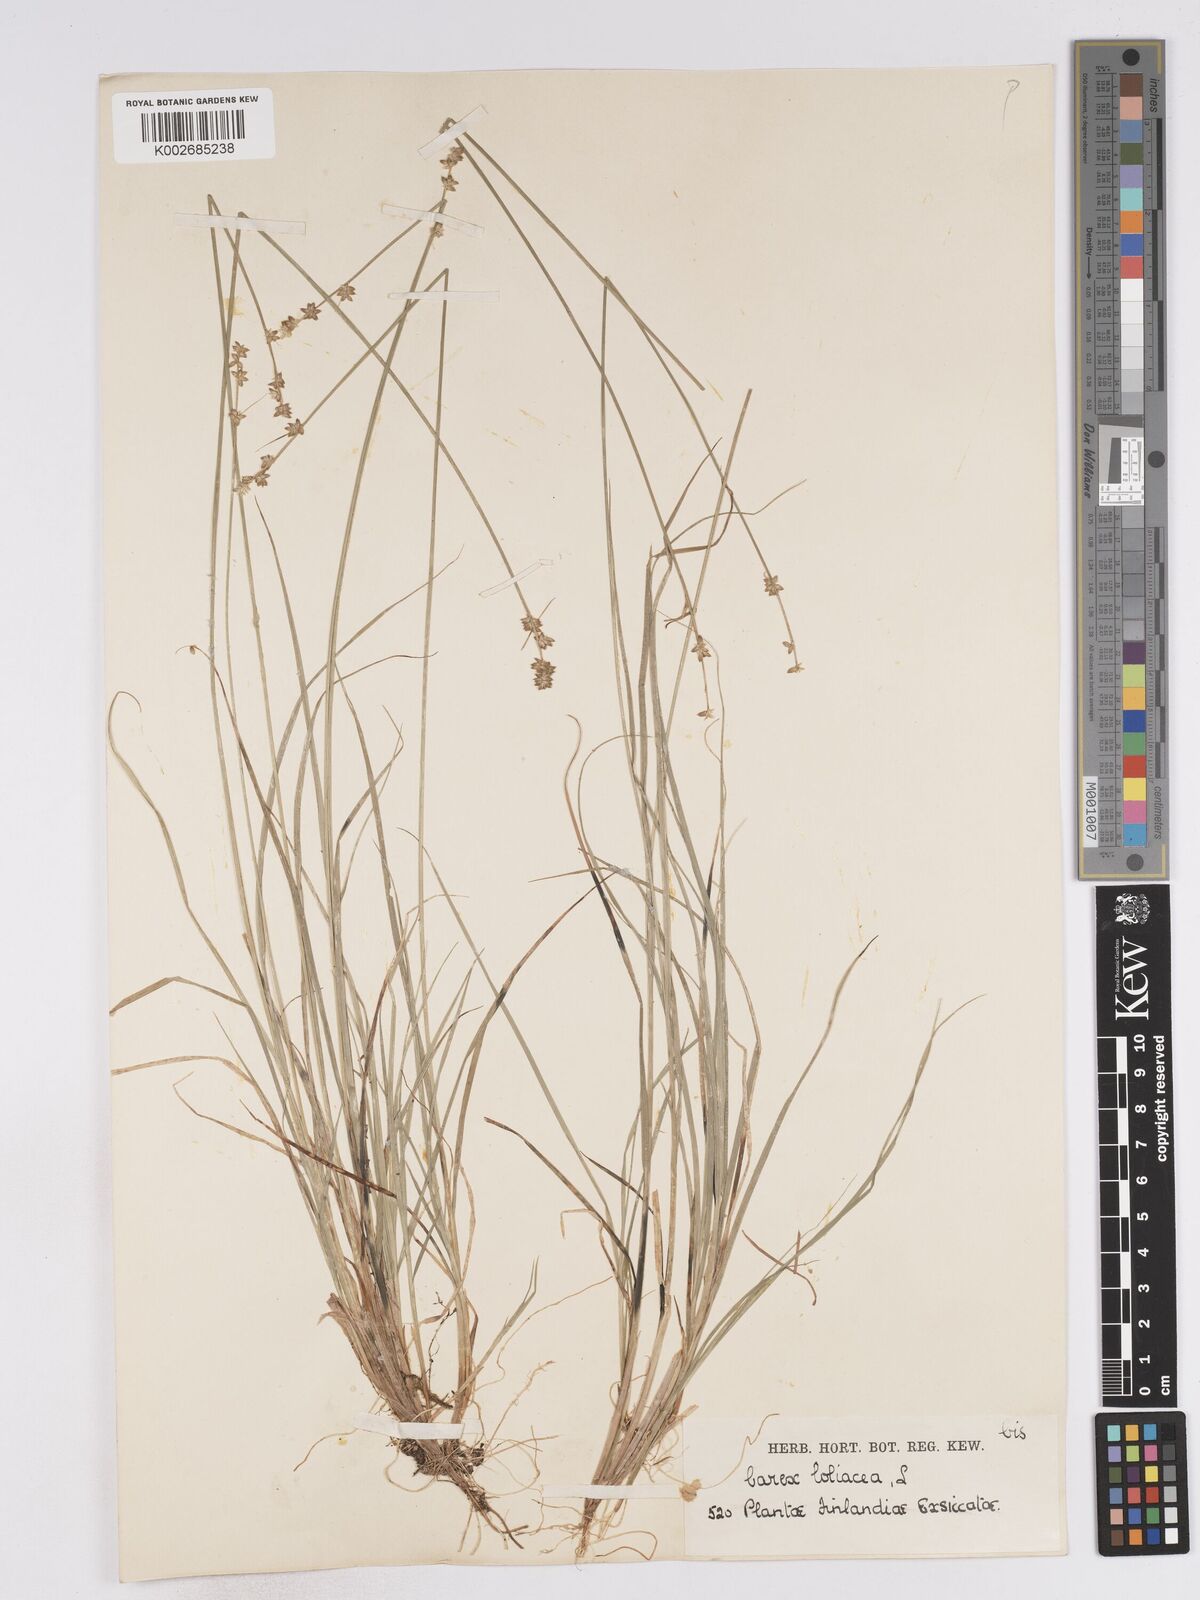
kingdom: Plantae
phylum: Tracheophyta
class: Liliopsida
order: Poales
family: Cyperaceae
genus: Carex
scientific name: Carex loliacea
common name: Ryegrass sedge
